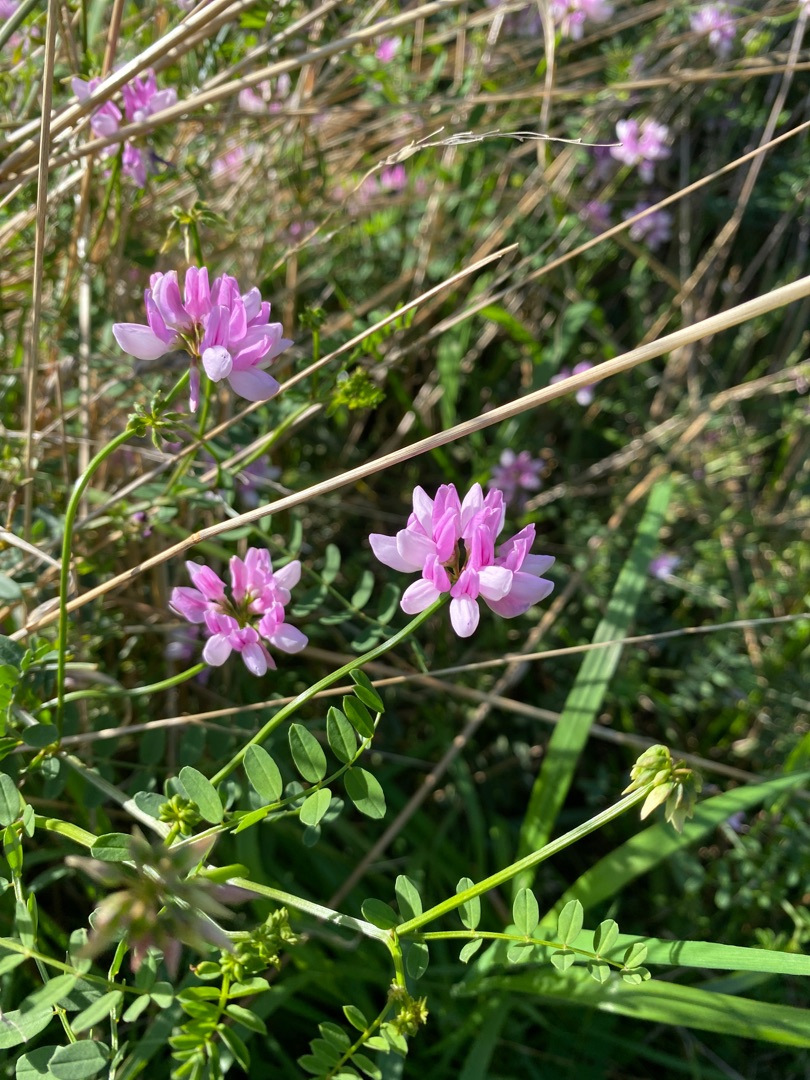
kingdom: Plantae
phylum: Tracheophyta
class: Magnoliopsida
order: Fabales
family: Fabaceae
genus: Coronilla
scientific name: Coronilla varia
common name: Giftig kronvikke
